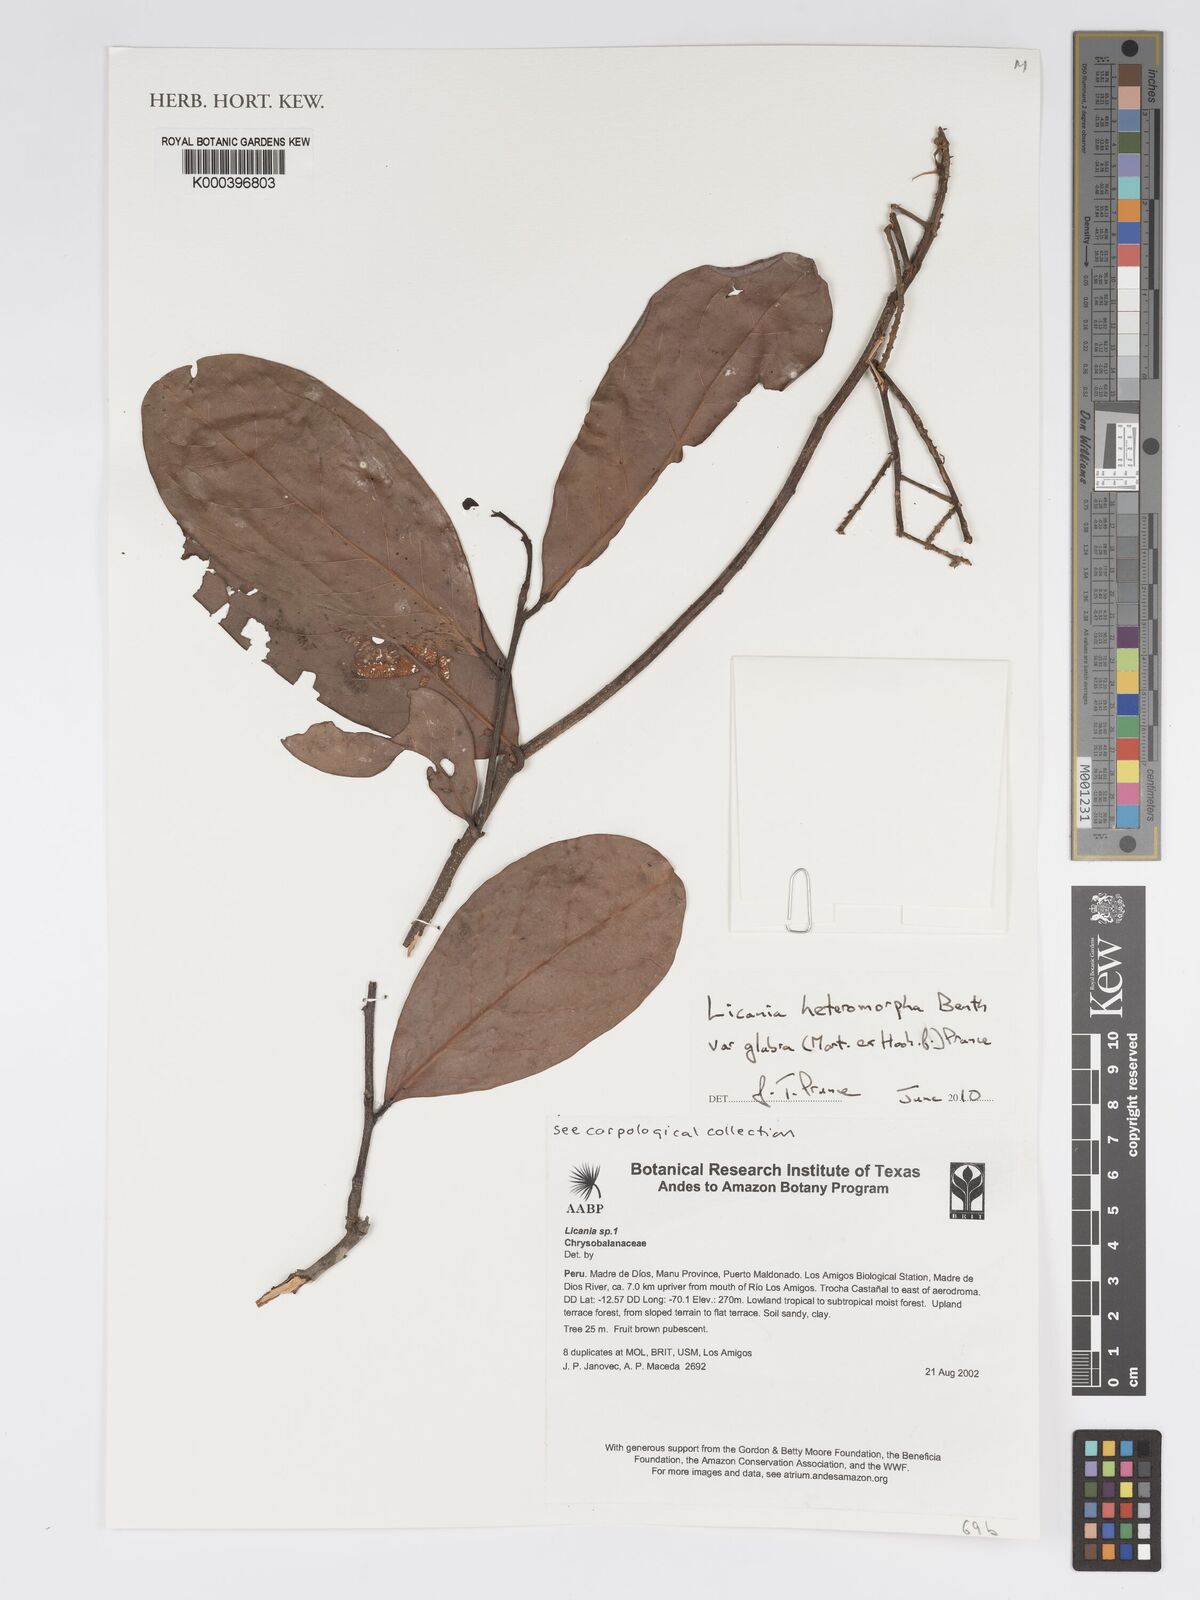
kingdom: Plantae
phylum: Tracheophyta
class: Magnoliopsida
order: Malpighiales
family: Chrysobalanaceae
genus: Licania
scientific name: Licania heteromorpha
